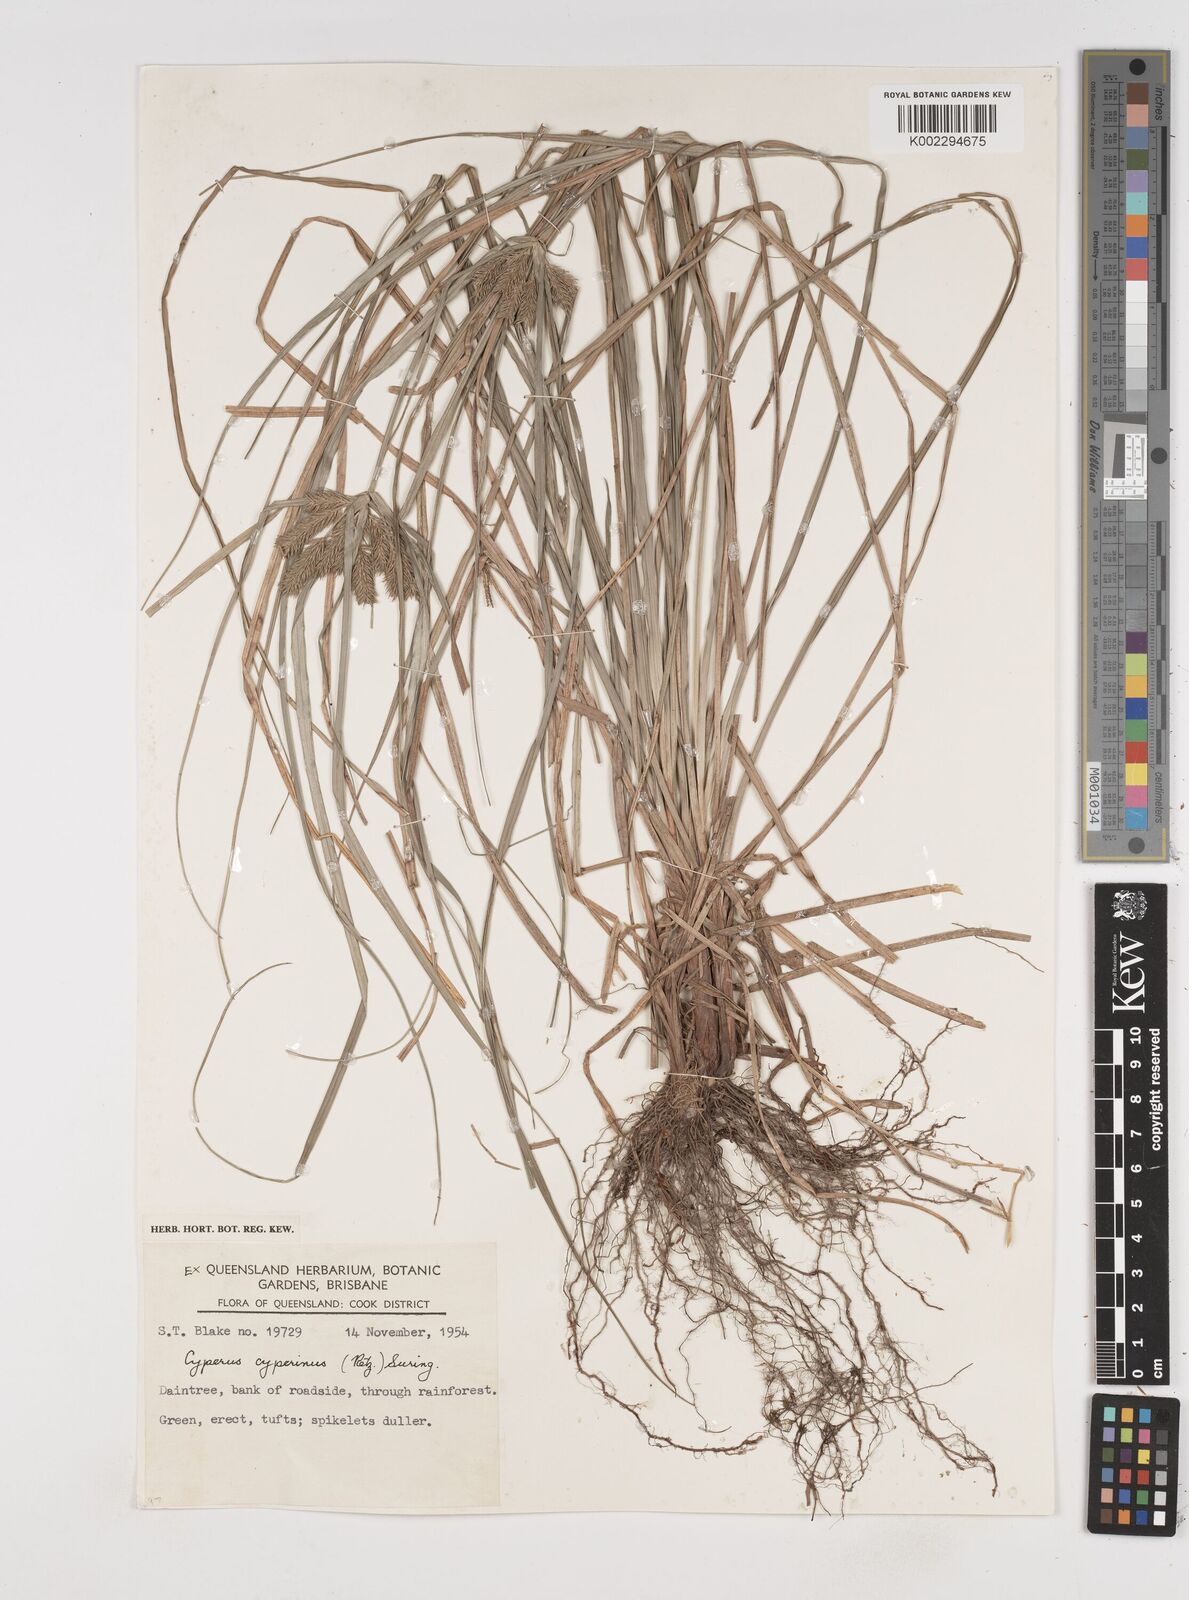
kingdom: Plantae
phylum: Tracheophyta
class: Liliopsida
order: Poales
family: Cyperaceae
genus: Cyperus
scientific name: Cyperus cyperinus
